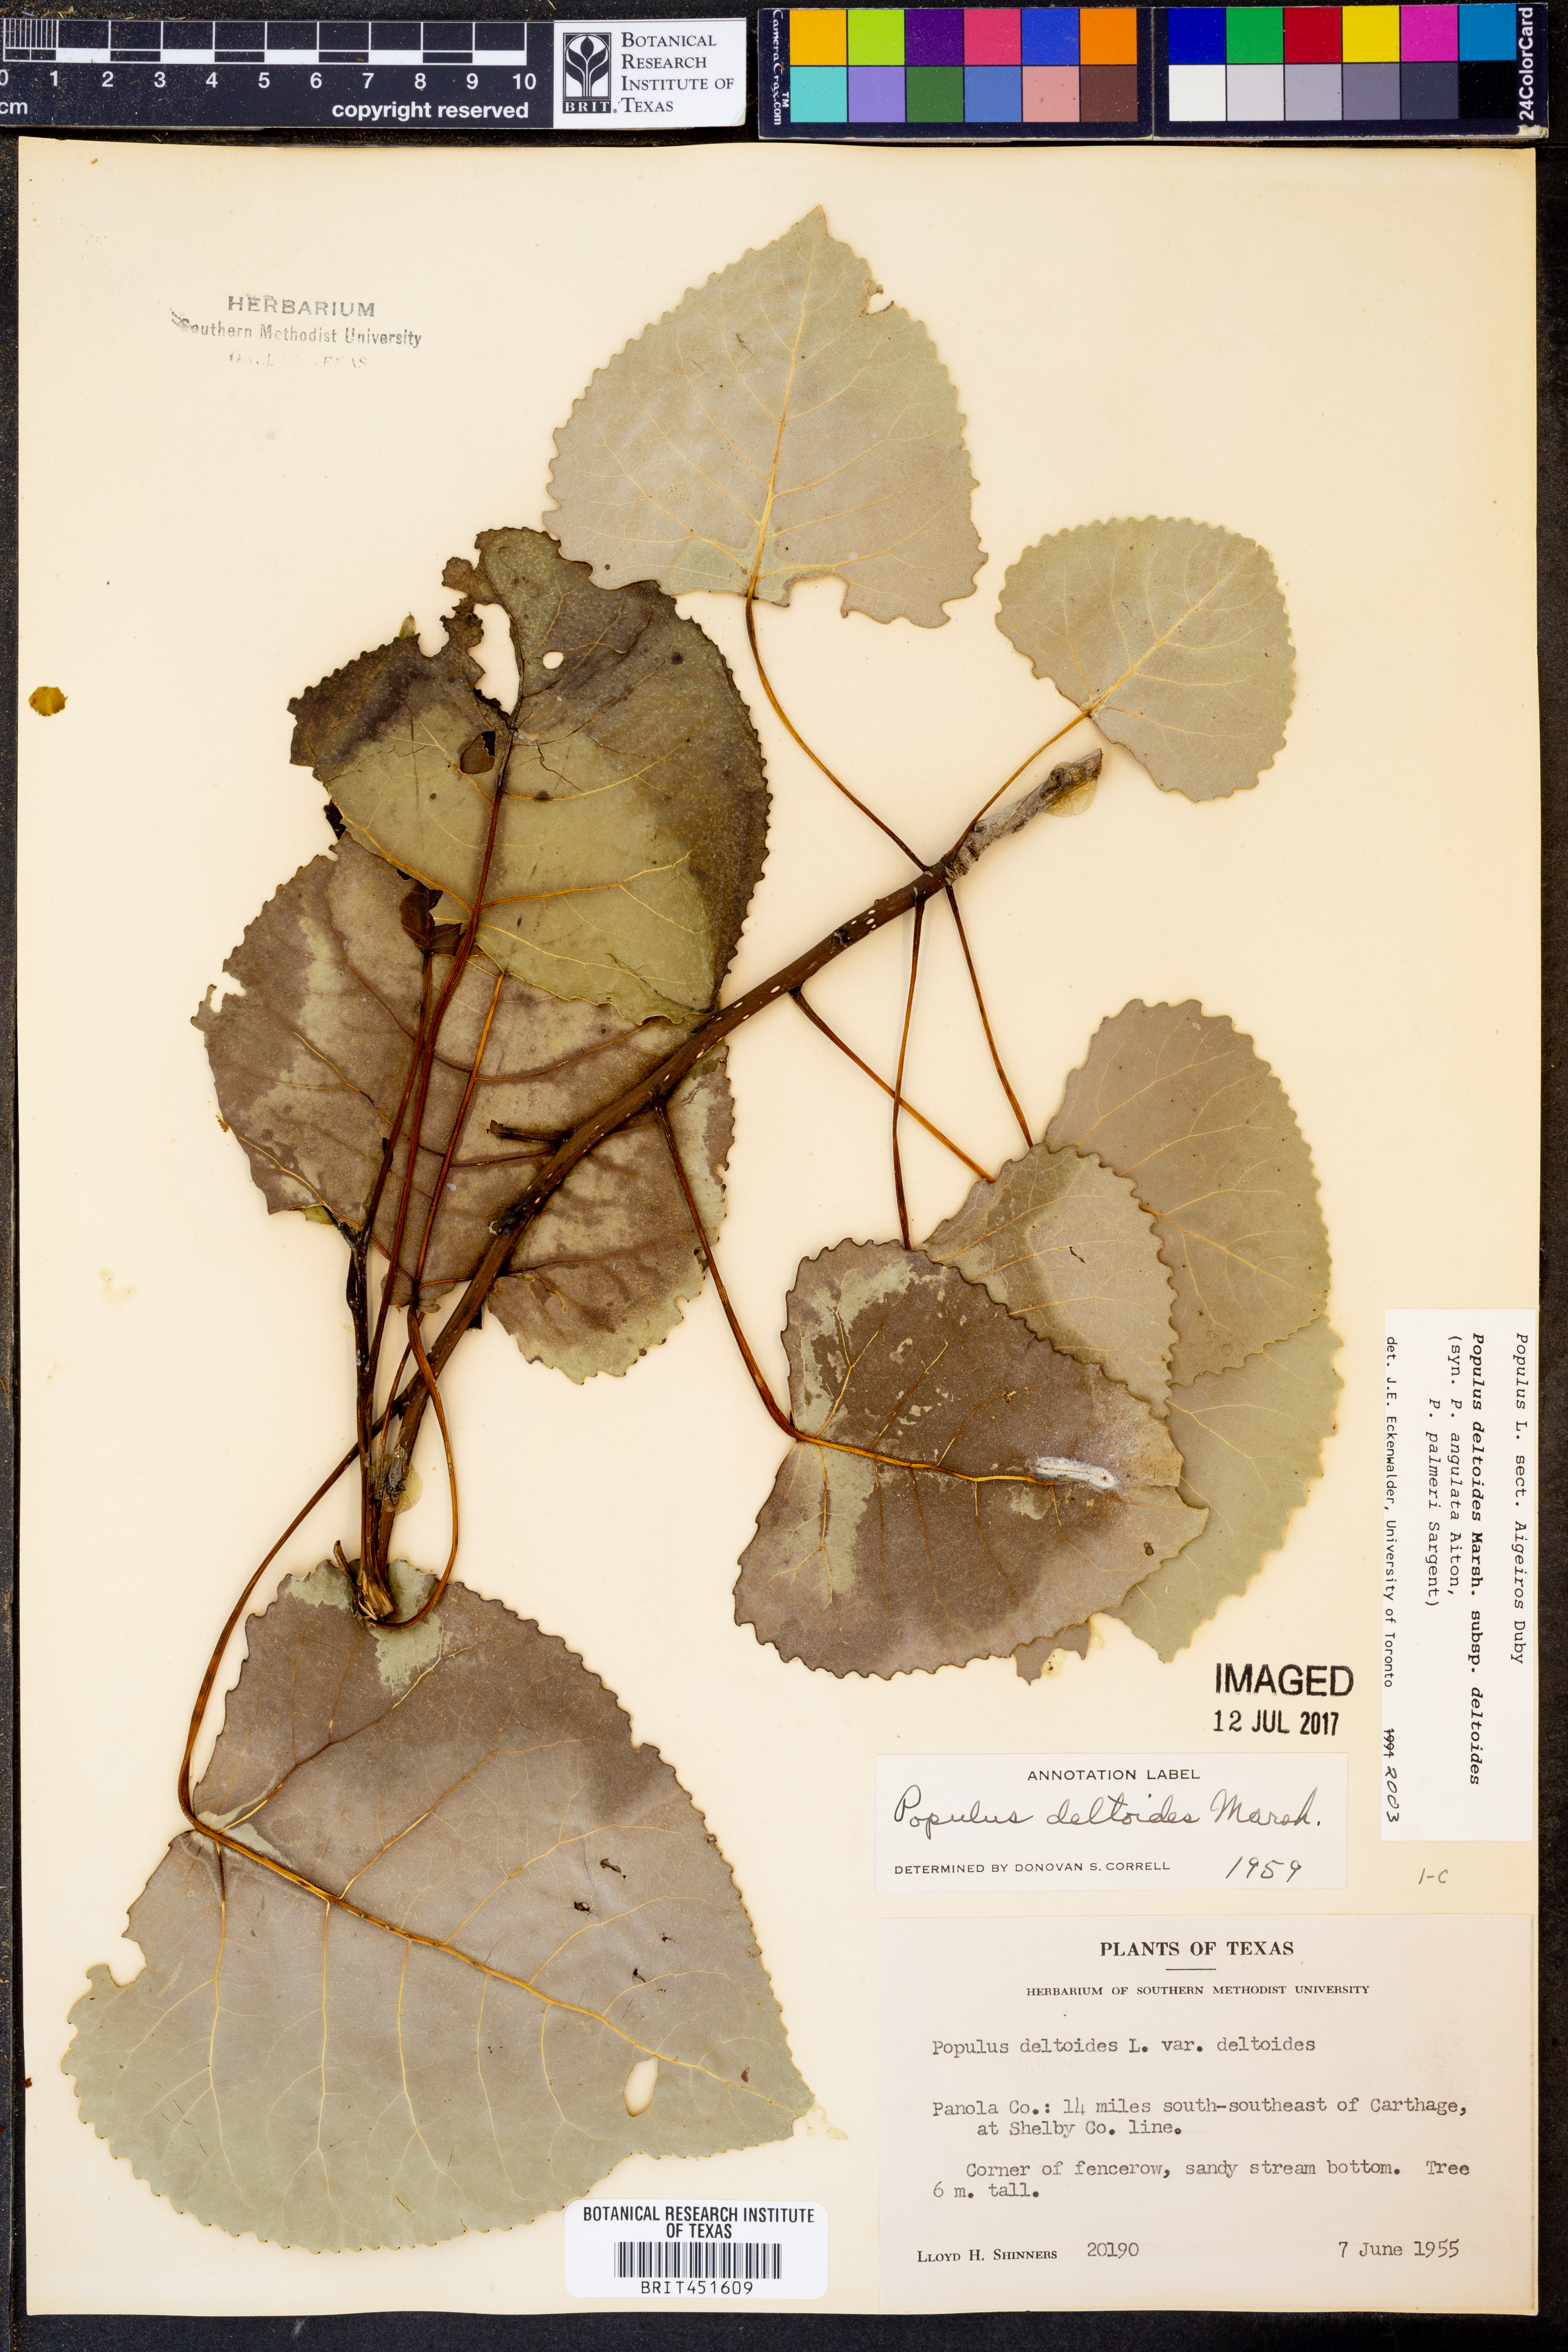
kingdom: Plantae
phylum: Tracheophyta
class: Magnoliopsida
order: Malpighiales
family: Salicaceae
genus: Populus
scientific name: Populus deltoides
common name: Eastern cottonwood
